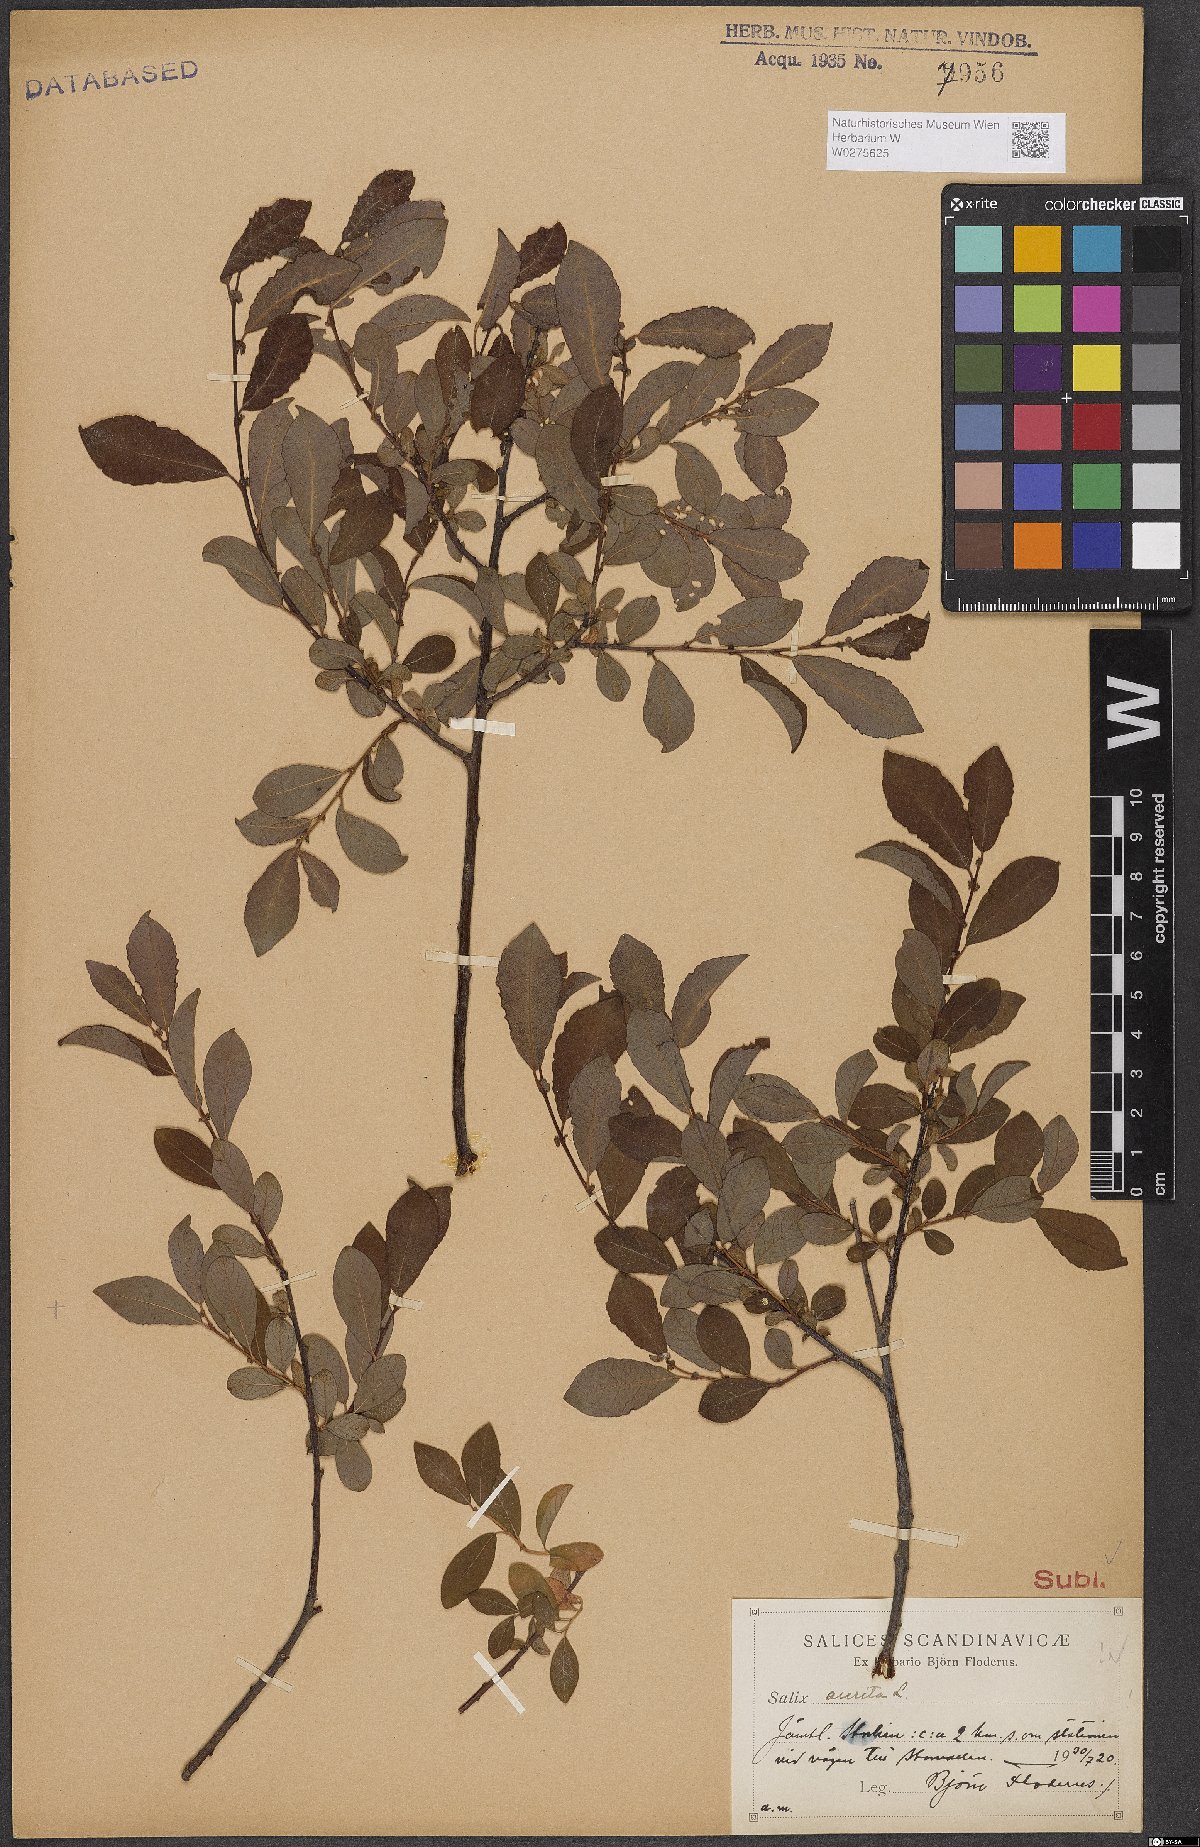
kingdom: Plantae
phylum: Tracheophyta
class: Magnoliopsida
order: Malpighiales
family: Salicaceae
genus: Salix
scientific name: Salix aurita
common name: Eared willow
